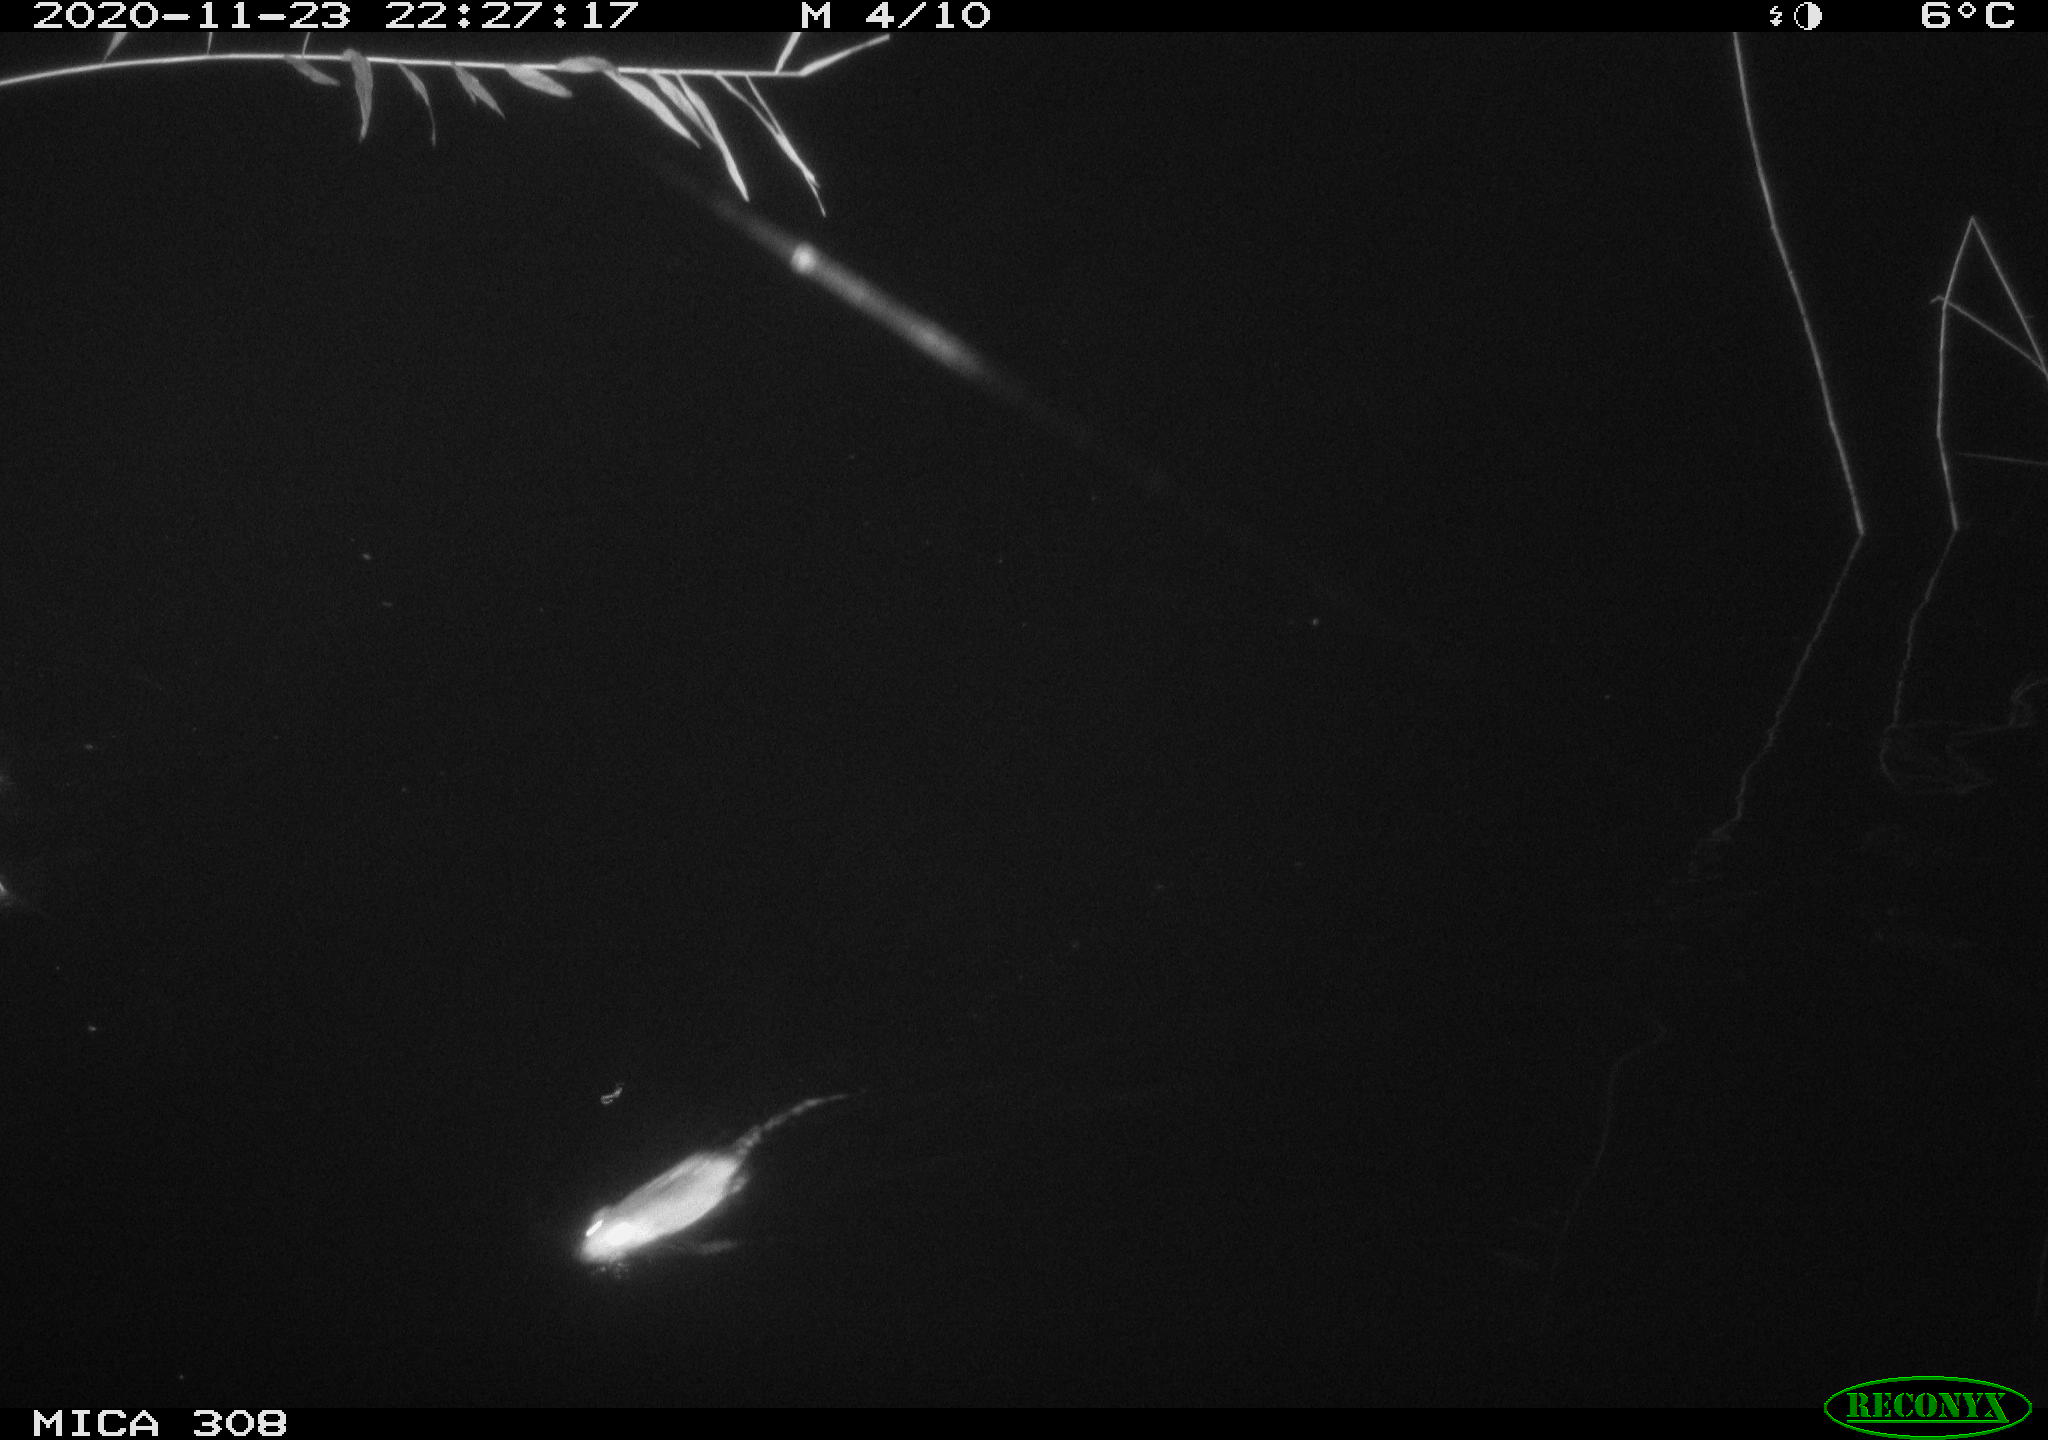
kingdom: Animalia
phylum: Chordata
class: Mammalia
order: Rodentia
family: Muridae
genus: Rattus
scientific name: Rattus norvegicus
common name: Brown rat
